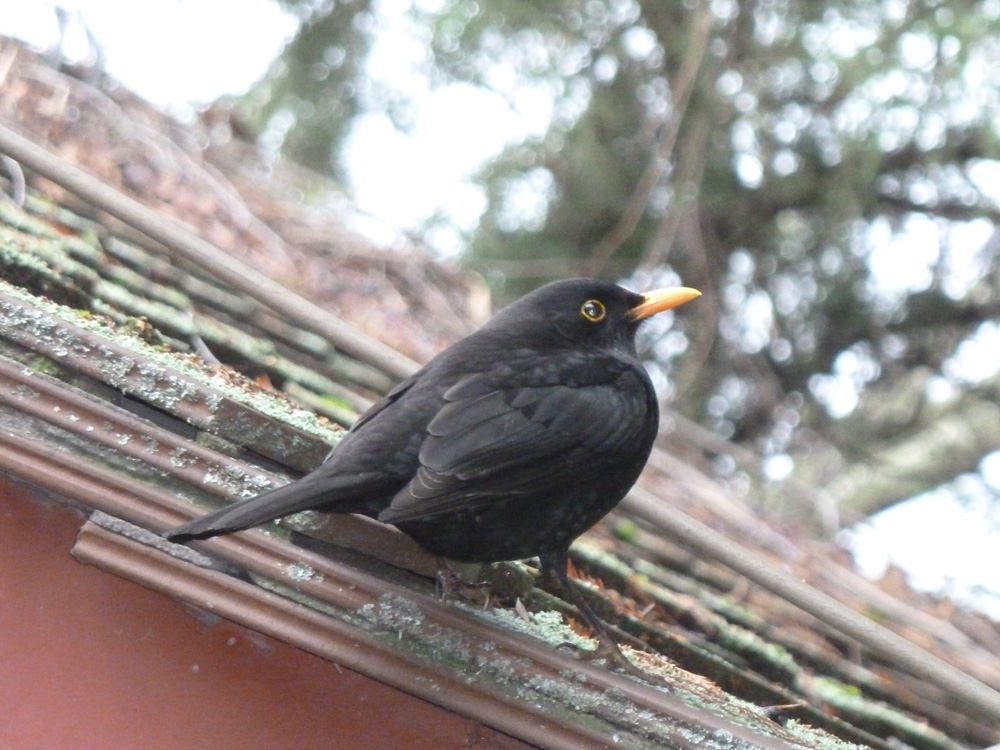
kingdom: Animalia
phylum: Chordata
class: Aves
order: Passeriformes
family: Turdidae
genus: Turdus
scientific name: Turdus merula
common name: Common blackbird
